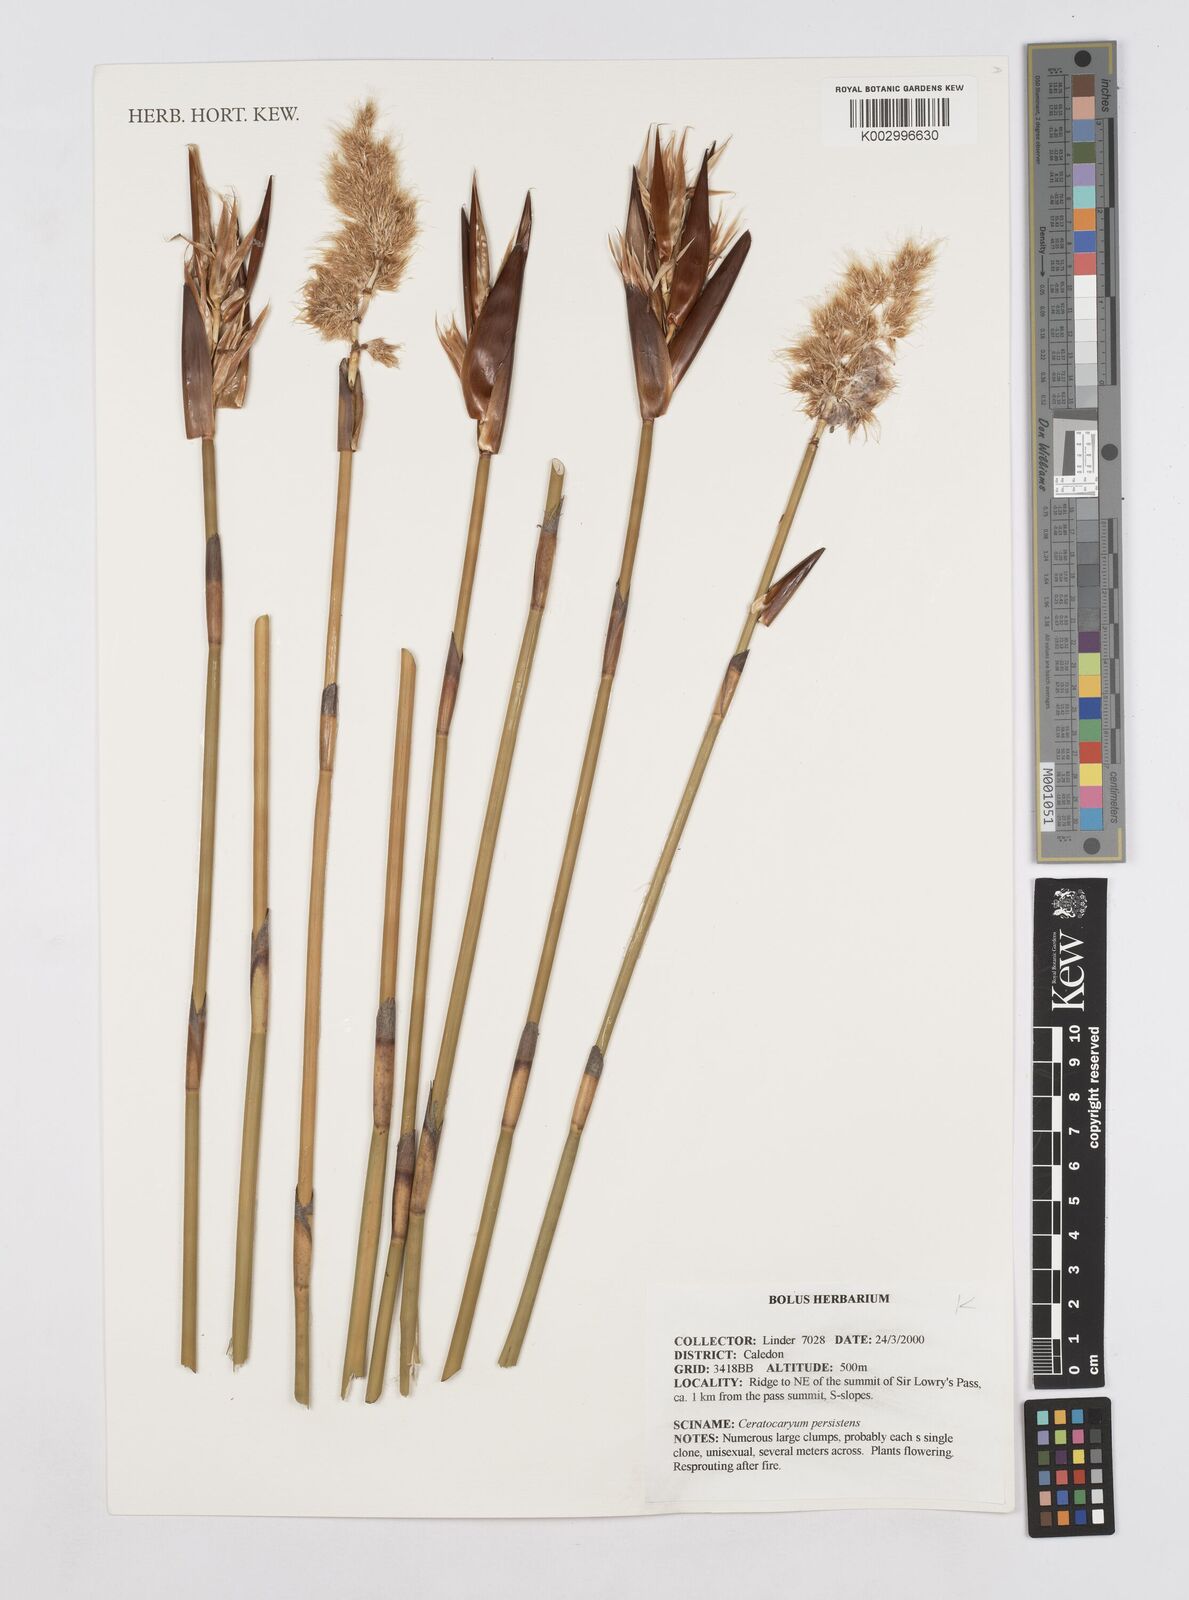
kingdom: Plantae
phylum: Tracheophyta
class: Liliopsida
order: Poales
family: Restionaceae
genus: Ceratocaryum
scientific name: Ceratocaryum persistens
